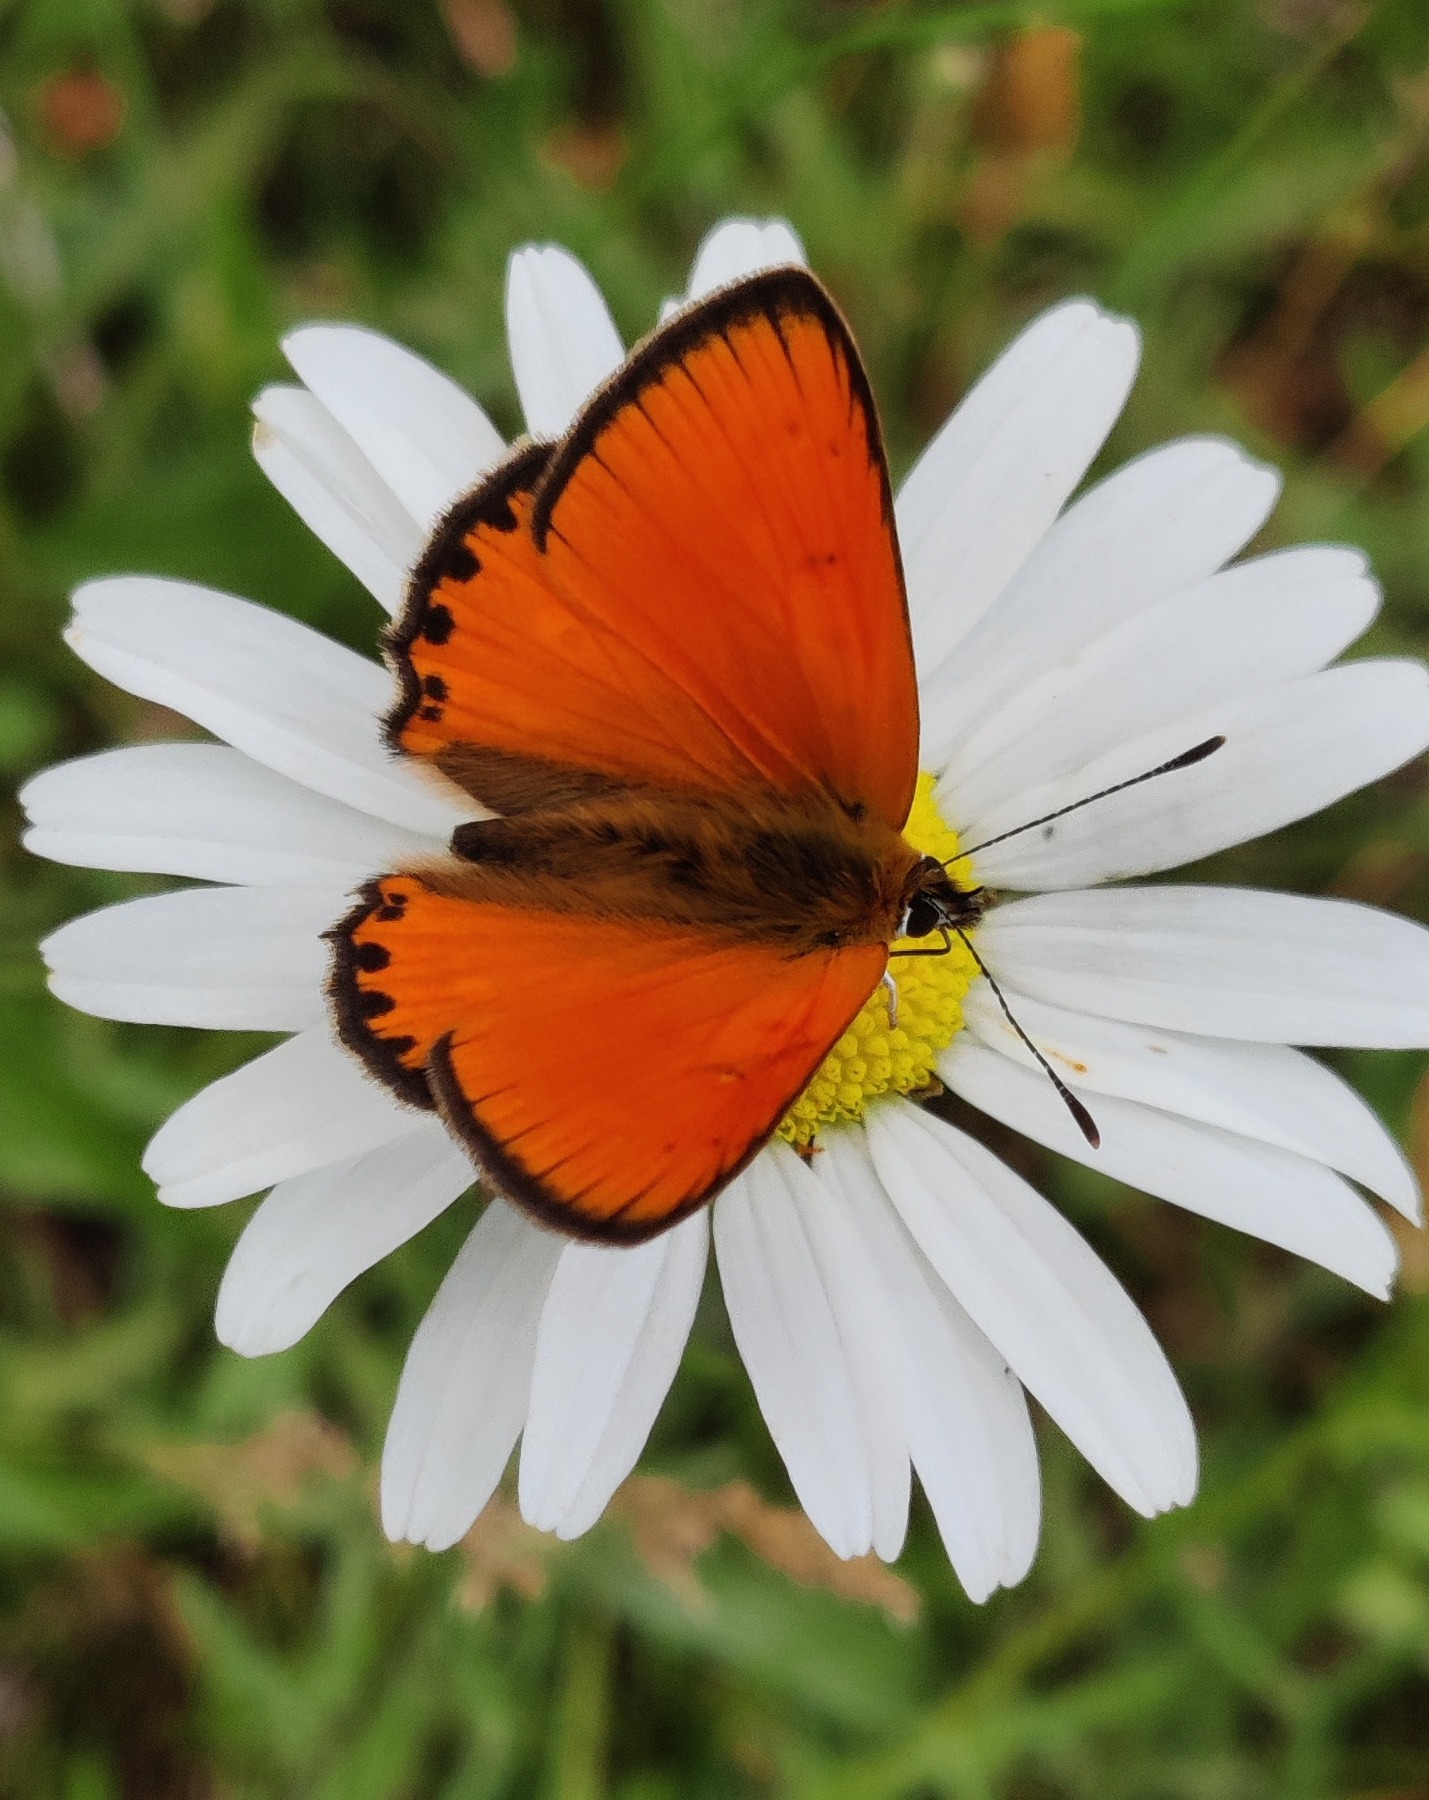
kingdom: Animalia
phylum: Arthropoda
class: Insecta
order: Lepidoptera
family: Lycaenidae
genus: Lycaena
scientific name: Lycaena virgaureae
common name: Dukatsommerfugl
